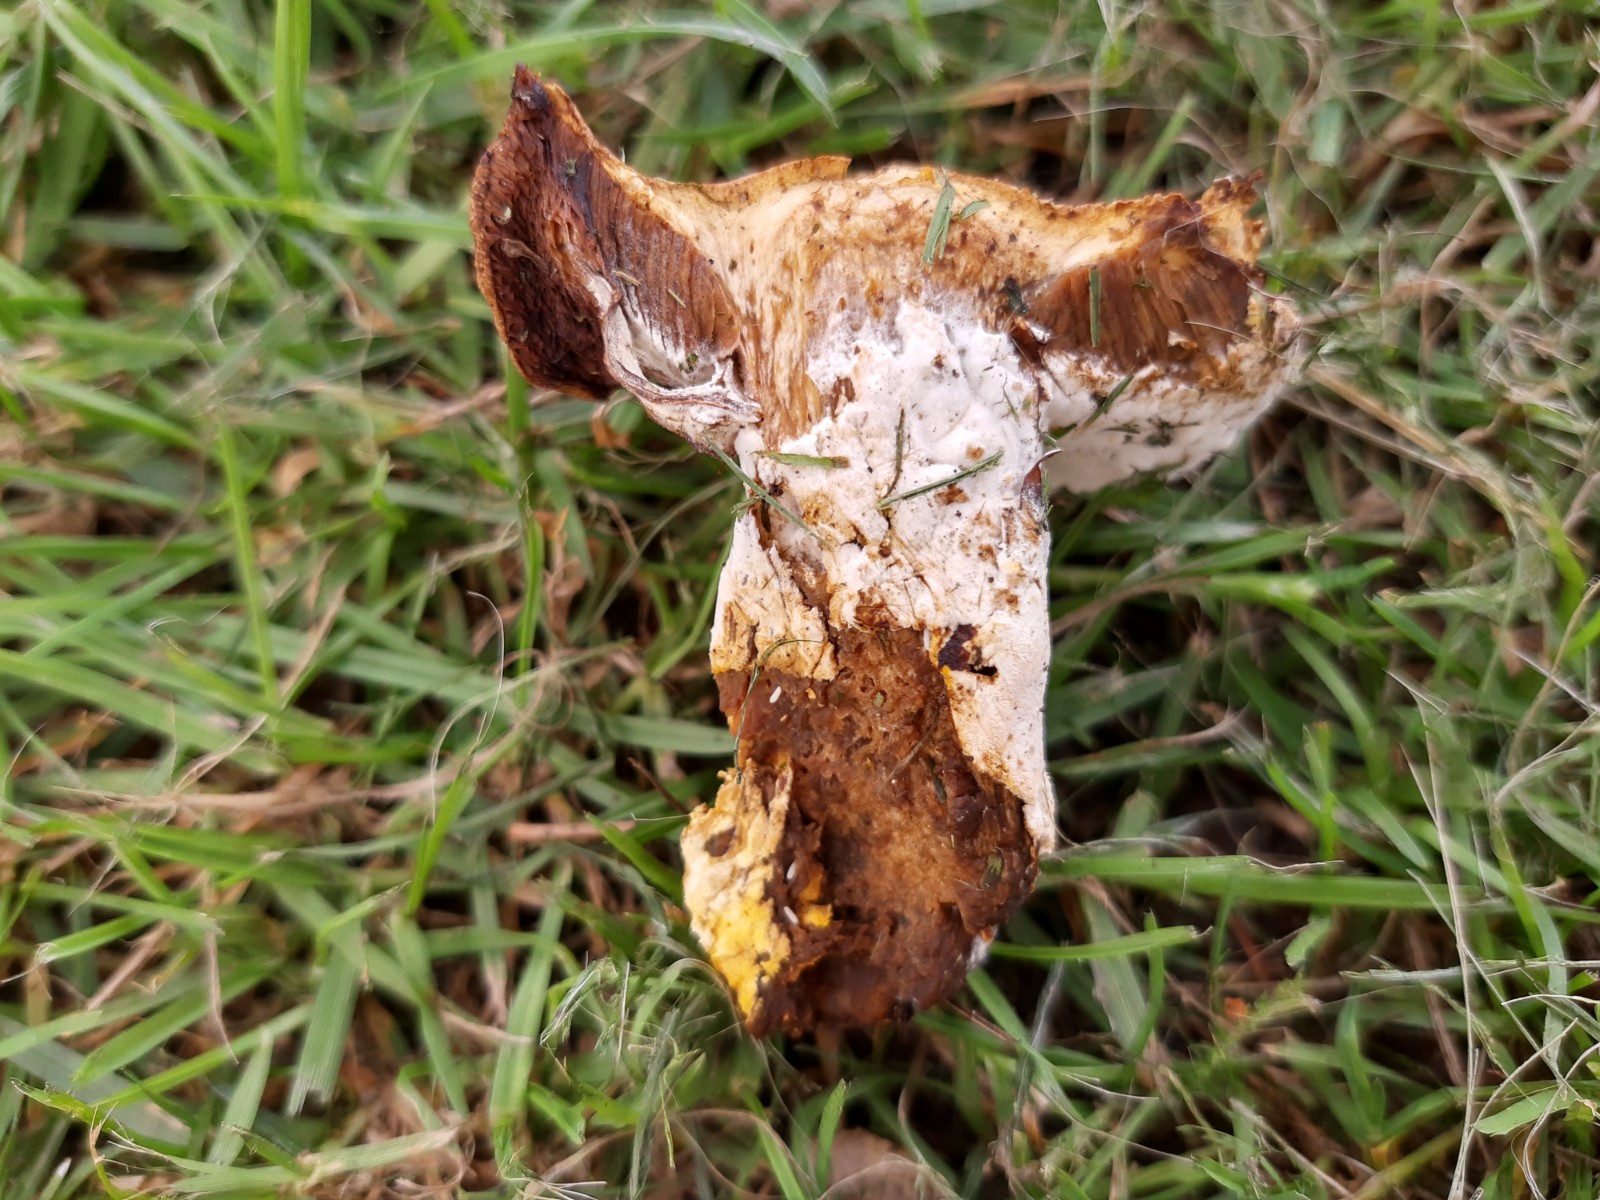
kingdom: Fungi
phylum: Ascomycota
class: Sordariomycetes
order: Hypocreales
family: Hypocreaceae
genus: Hypomyces
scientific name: Hypomyces microspermus
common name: dværgrørhat-snylteskorpe
